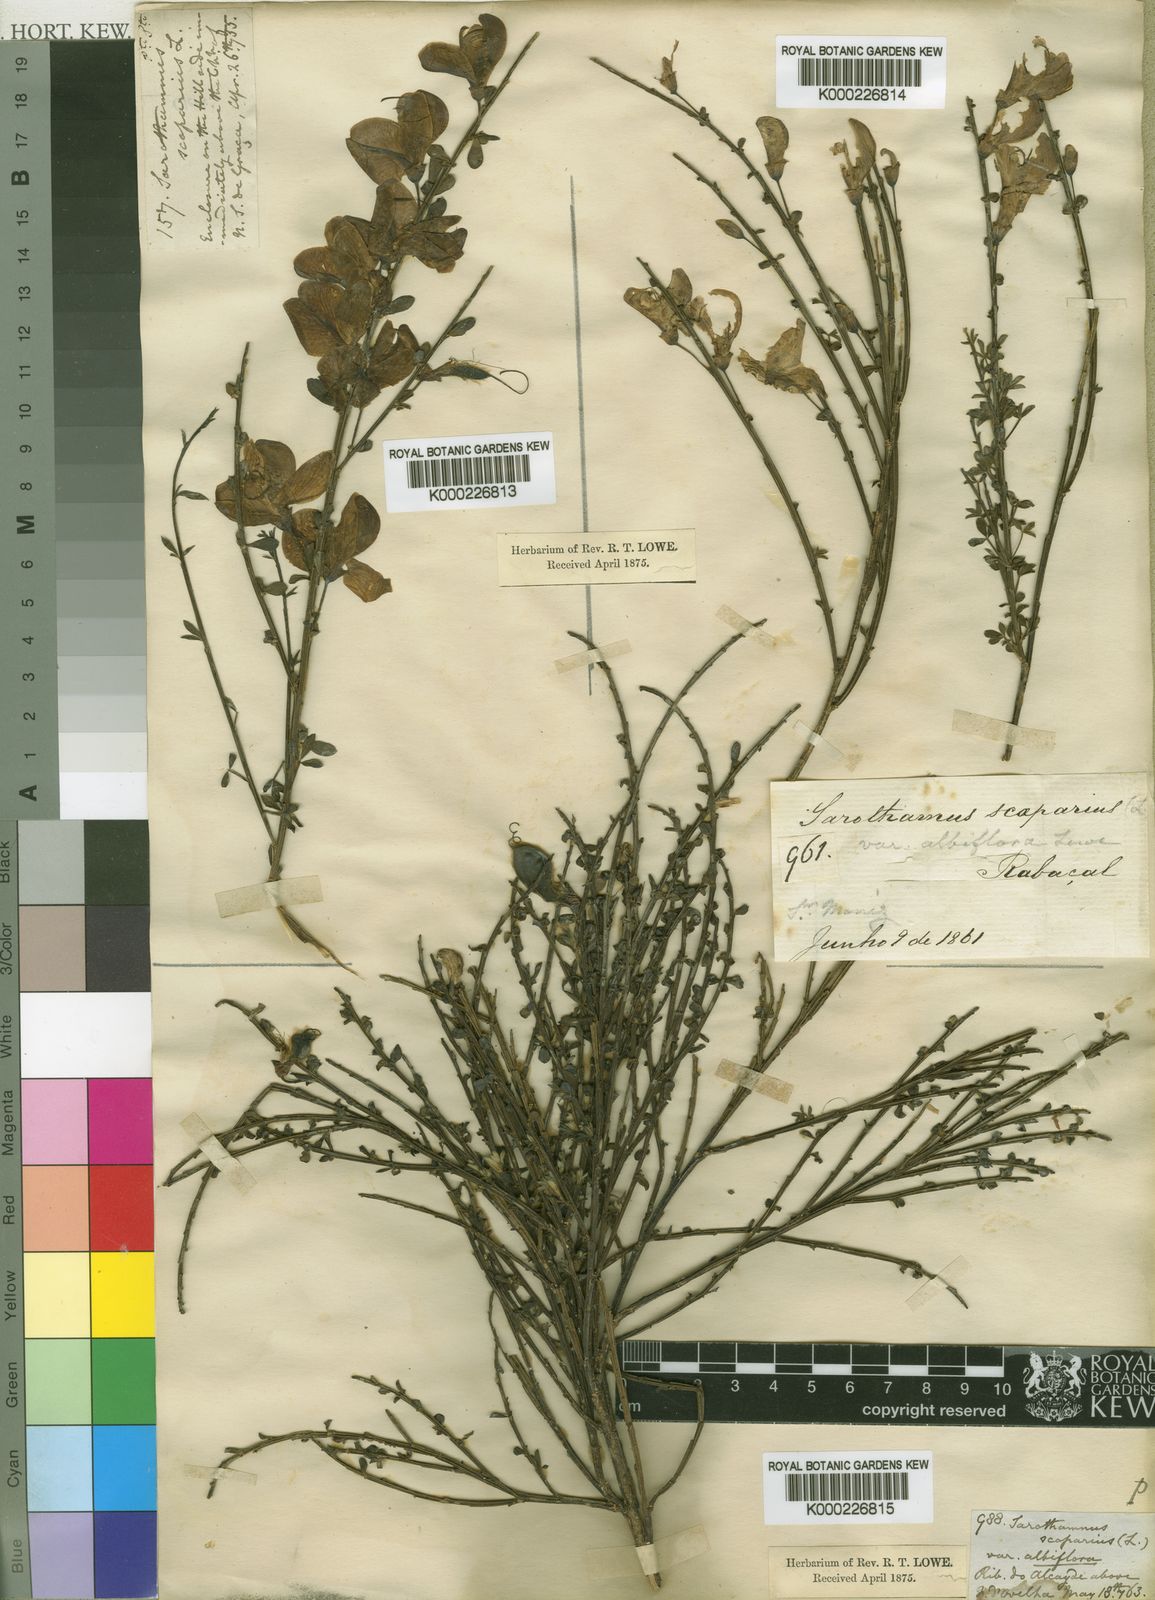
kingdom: Plantae
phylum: Tracheophyta
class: Magnoliopsida
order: Fabales
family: Fabaceae
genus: Cytisus
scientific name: Cytisus scoparius
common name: Scotch broom
